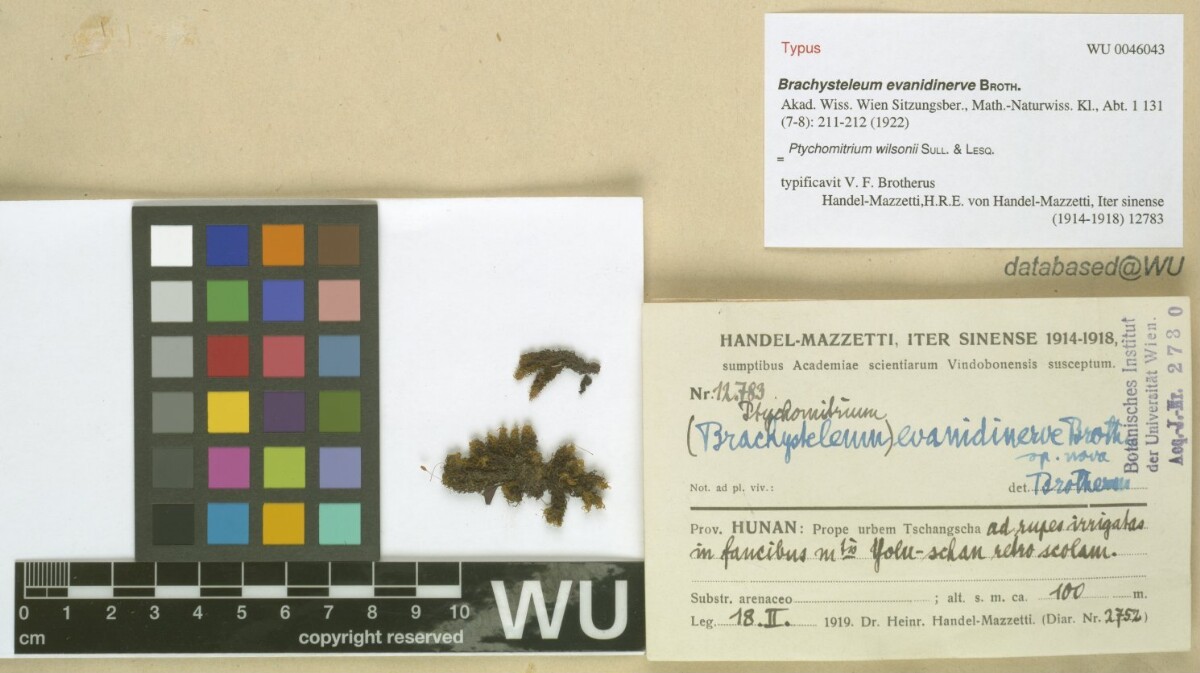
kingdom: Plantae
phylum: Bryophyta
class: Bryopsida
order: Grimmiales
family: Ptychomitriaceae
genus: Ptychomitrium
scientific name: Ptychomitrium wilsonii
